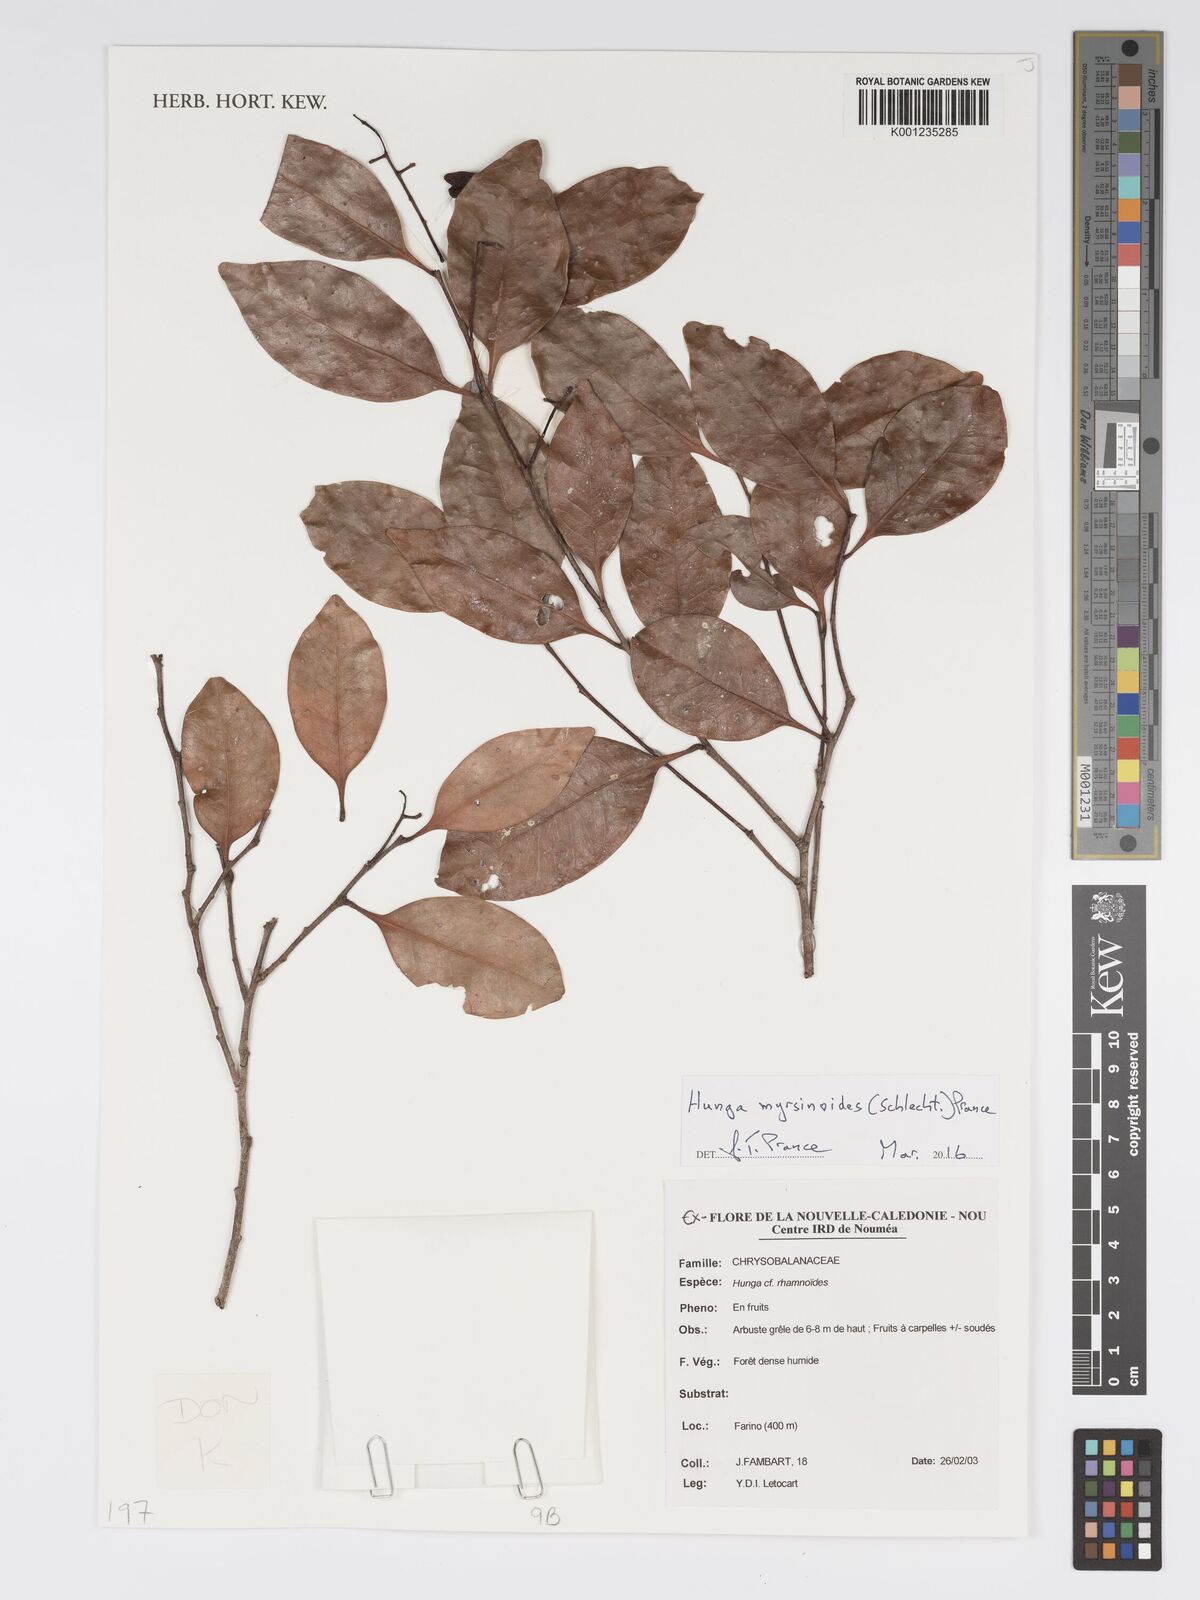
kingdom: Plantae
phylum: Tracheophyta
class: Magnoliopsida
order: Malpighiales
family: Chrysobalanaceae
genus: Hunga
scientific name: Hunga myrsinoides
